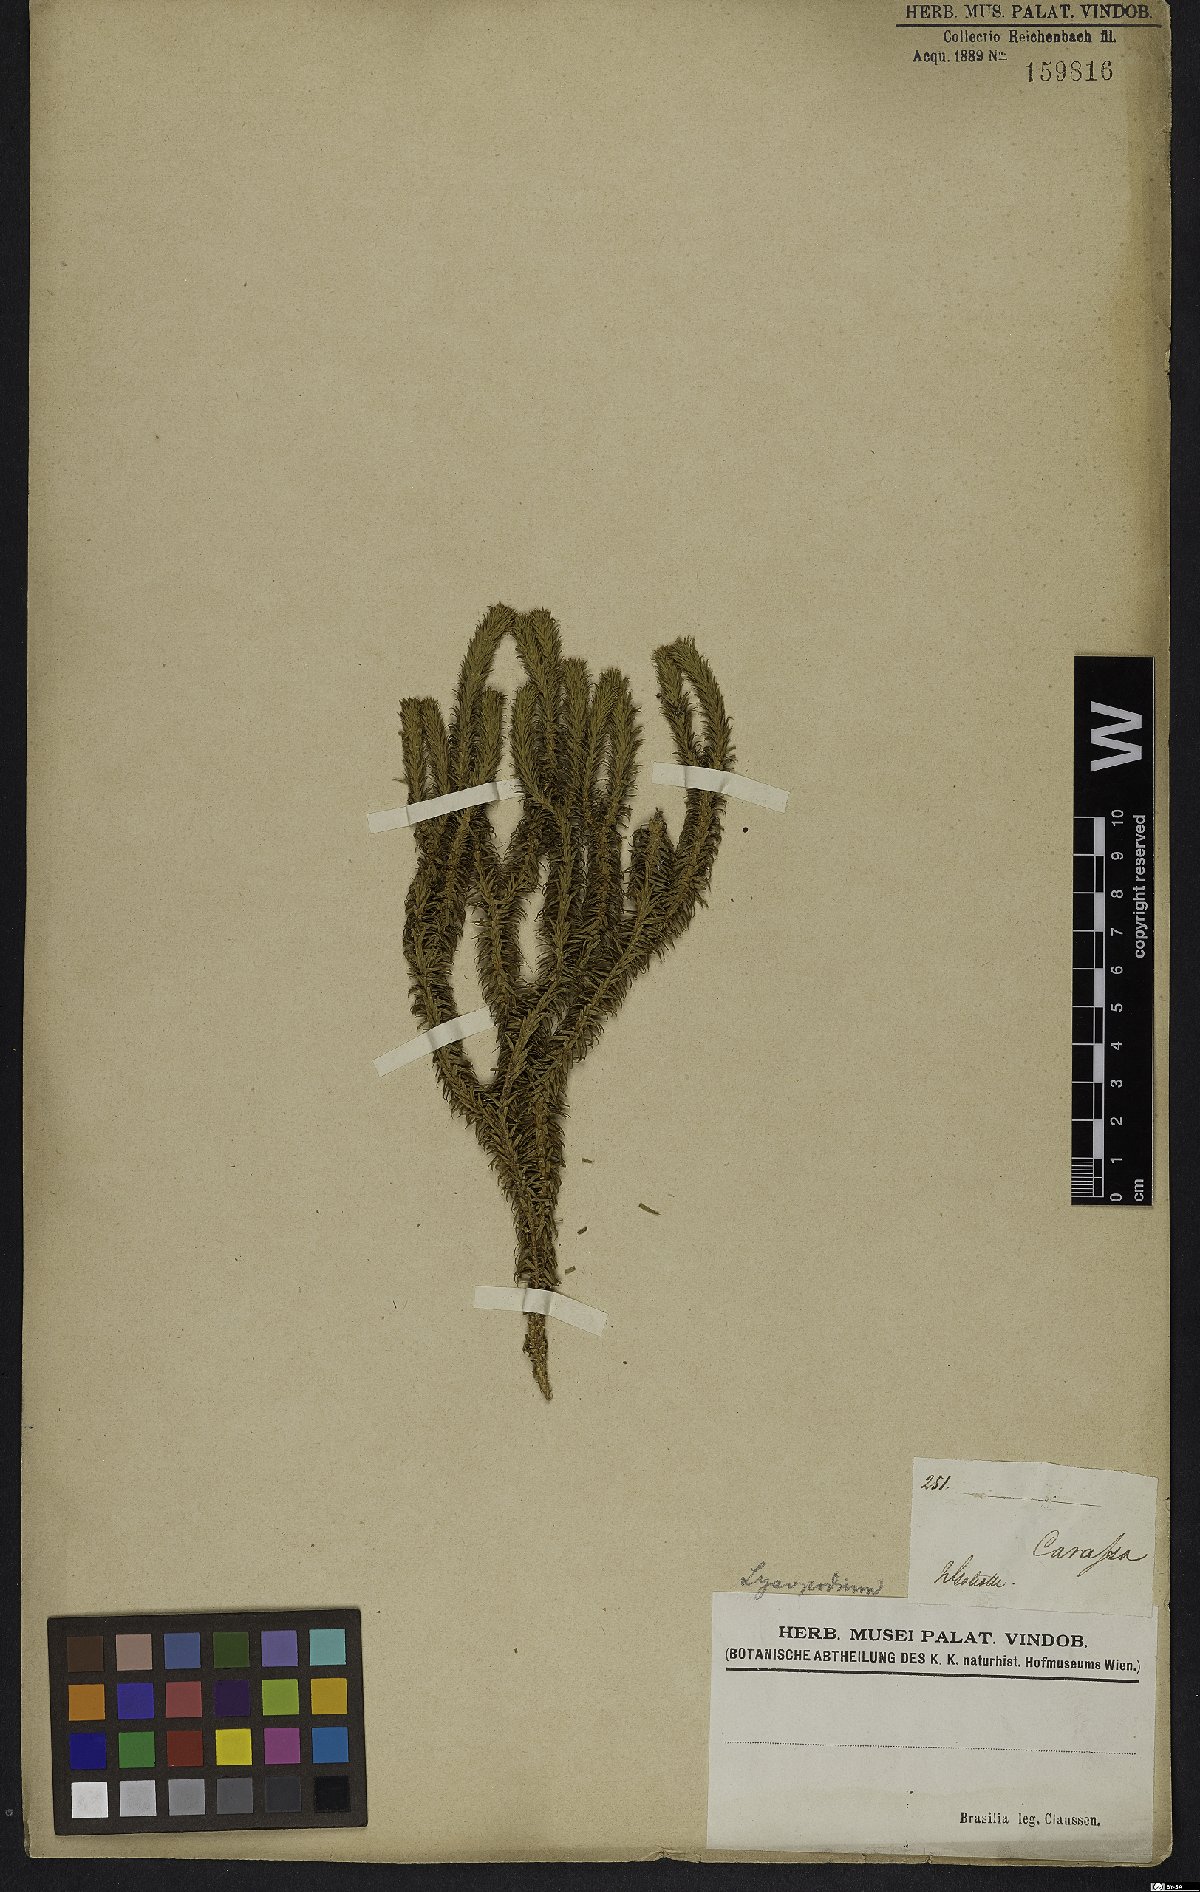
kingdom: Plantae
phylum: Tracheophyta
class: Lycopodiopsida
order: Lycopodiales
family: Lycopodiaceae
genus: Lycopodium
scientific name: Lycopodium
